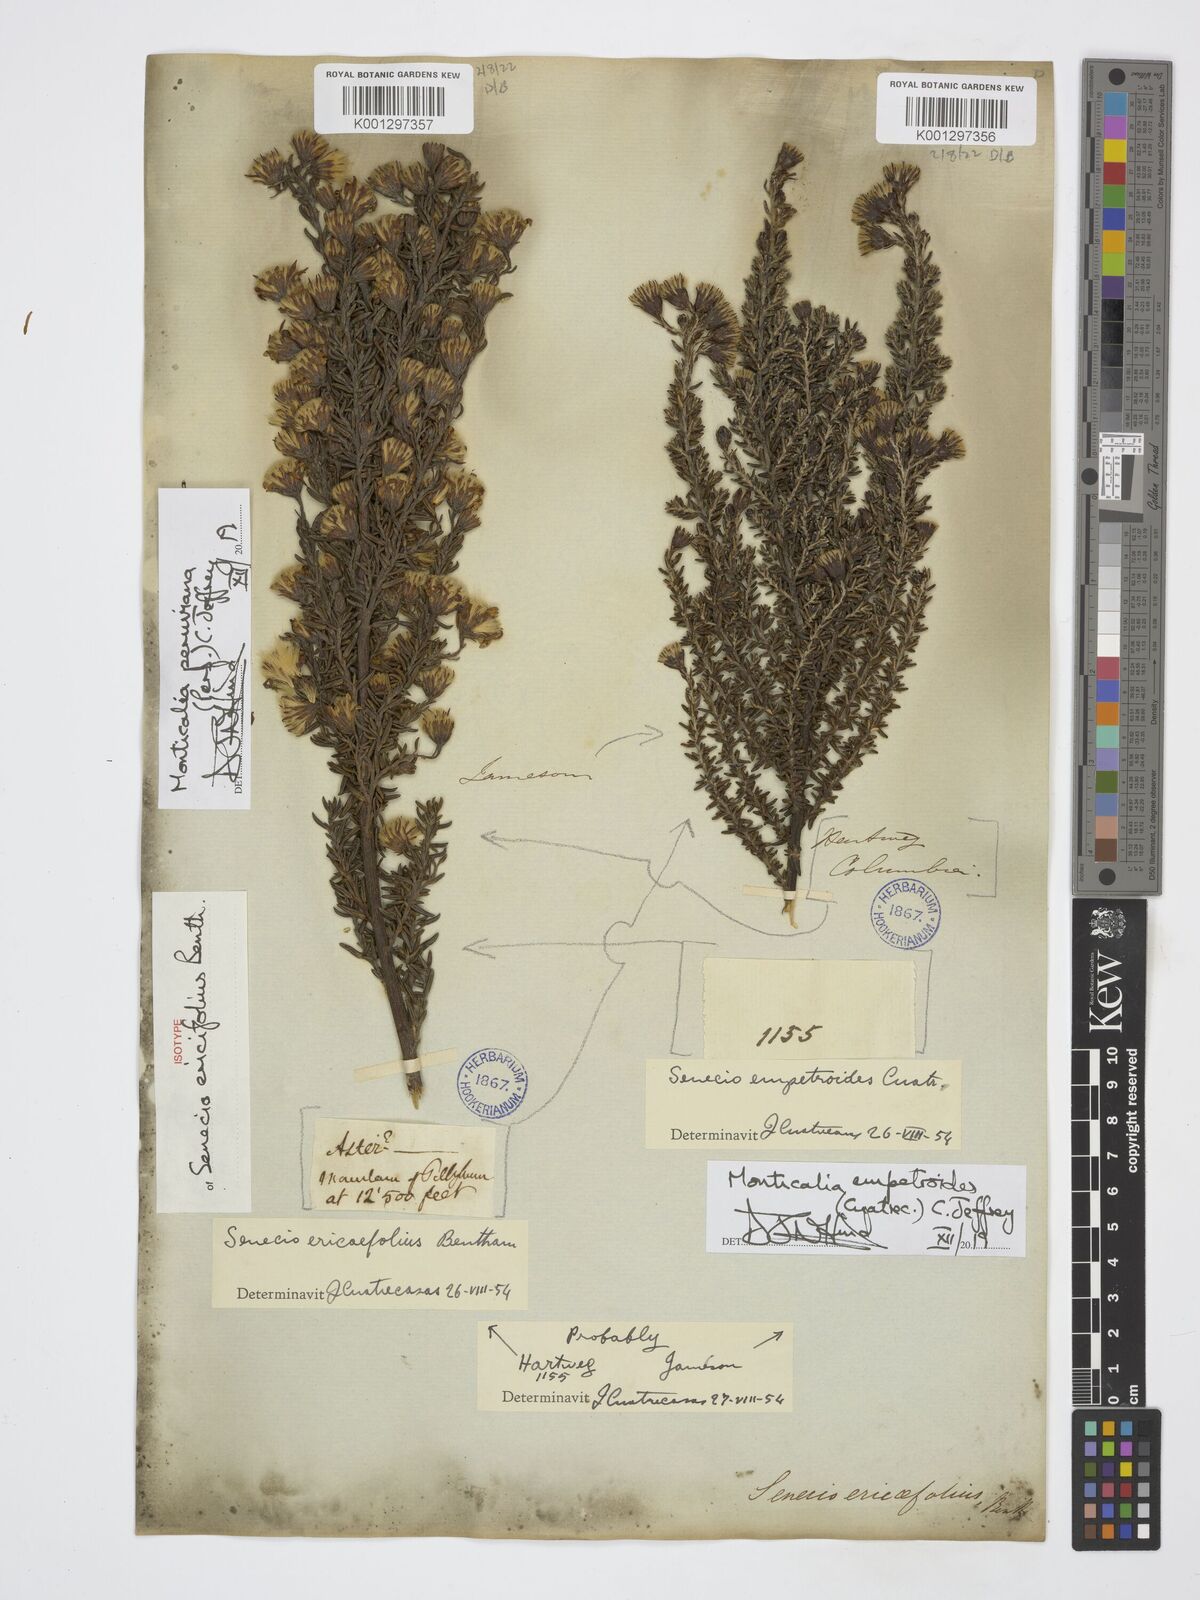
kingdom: Plantae
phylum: Tracheophyta
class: Magnoliopsida
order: Asterales
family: Asteraceae
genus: Monticalia
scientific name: Monticalia peruviana
